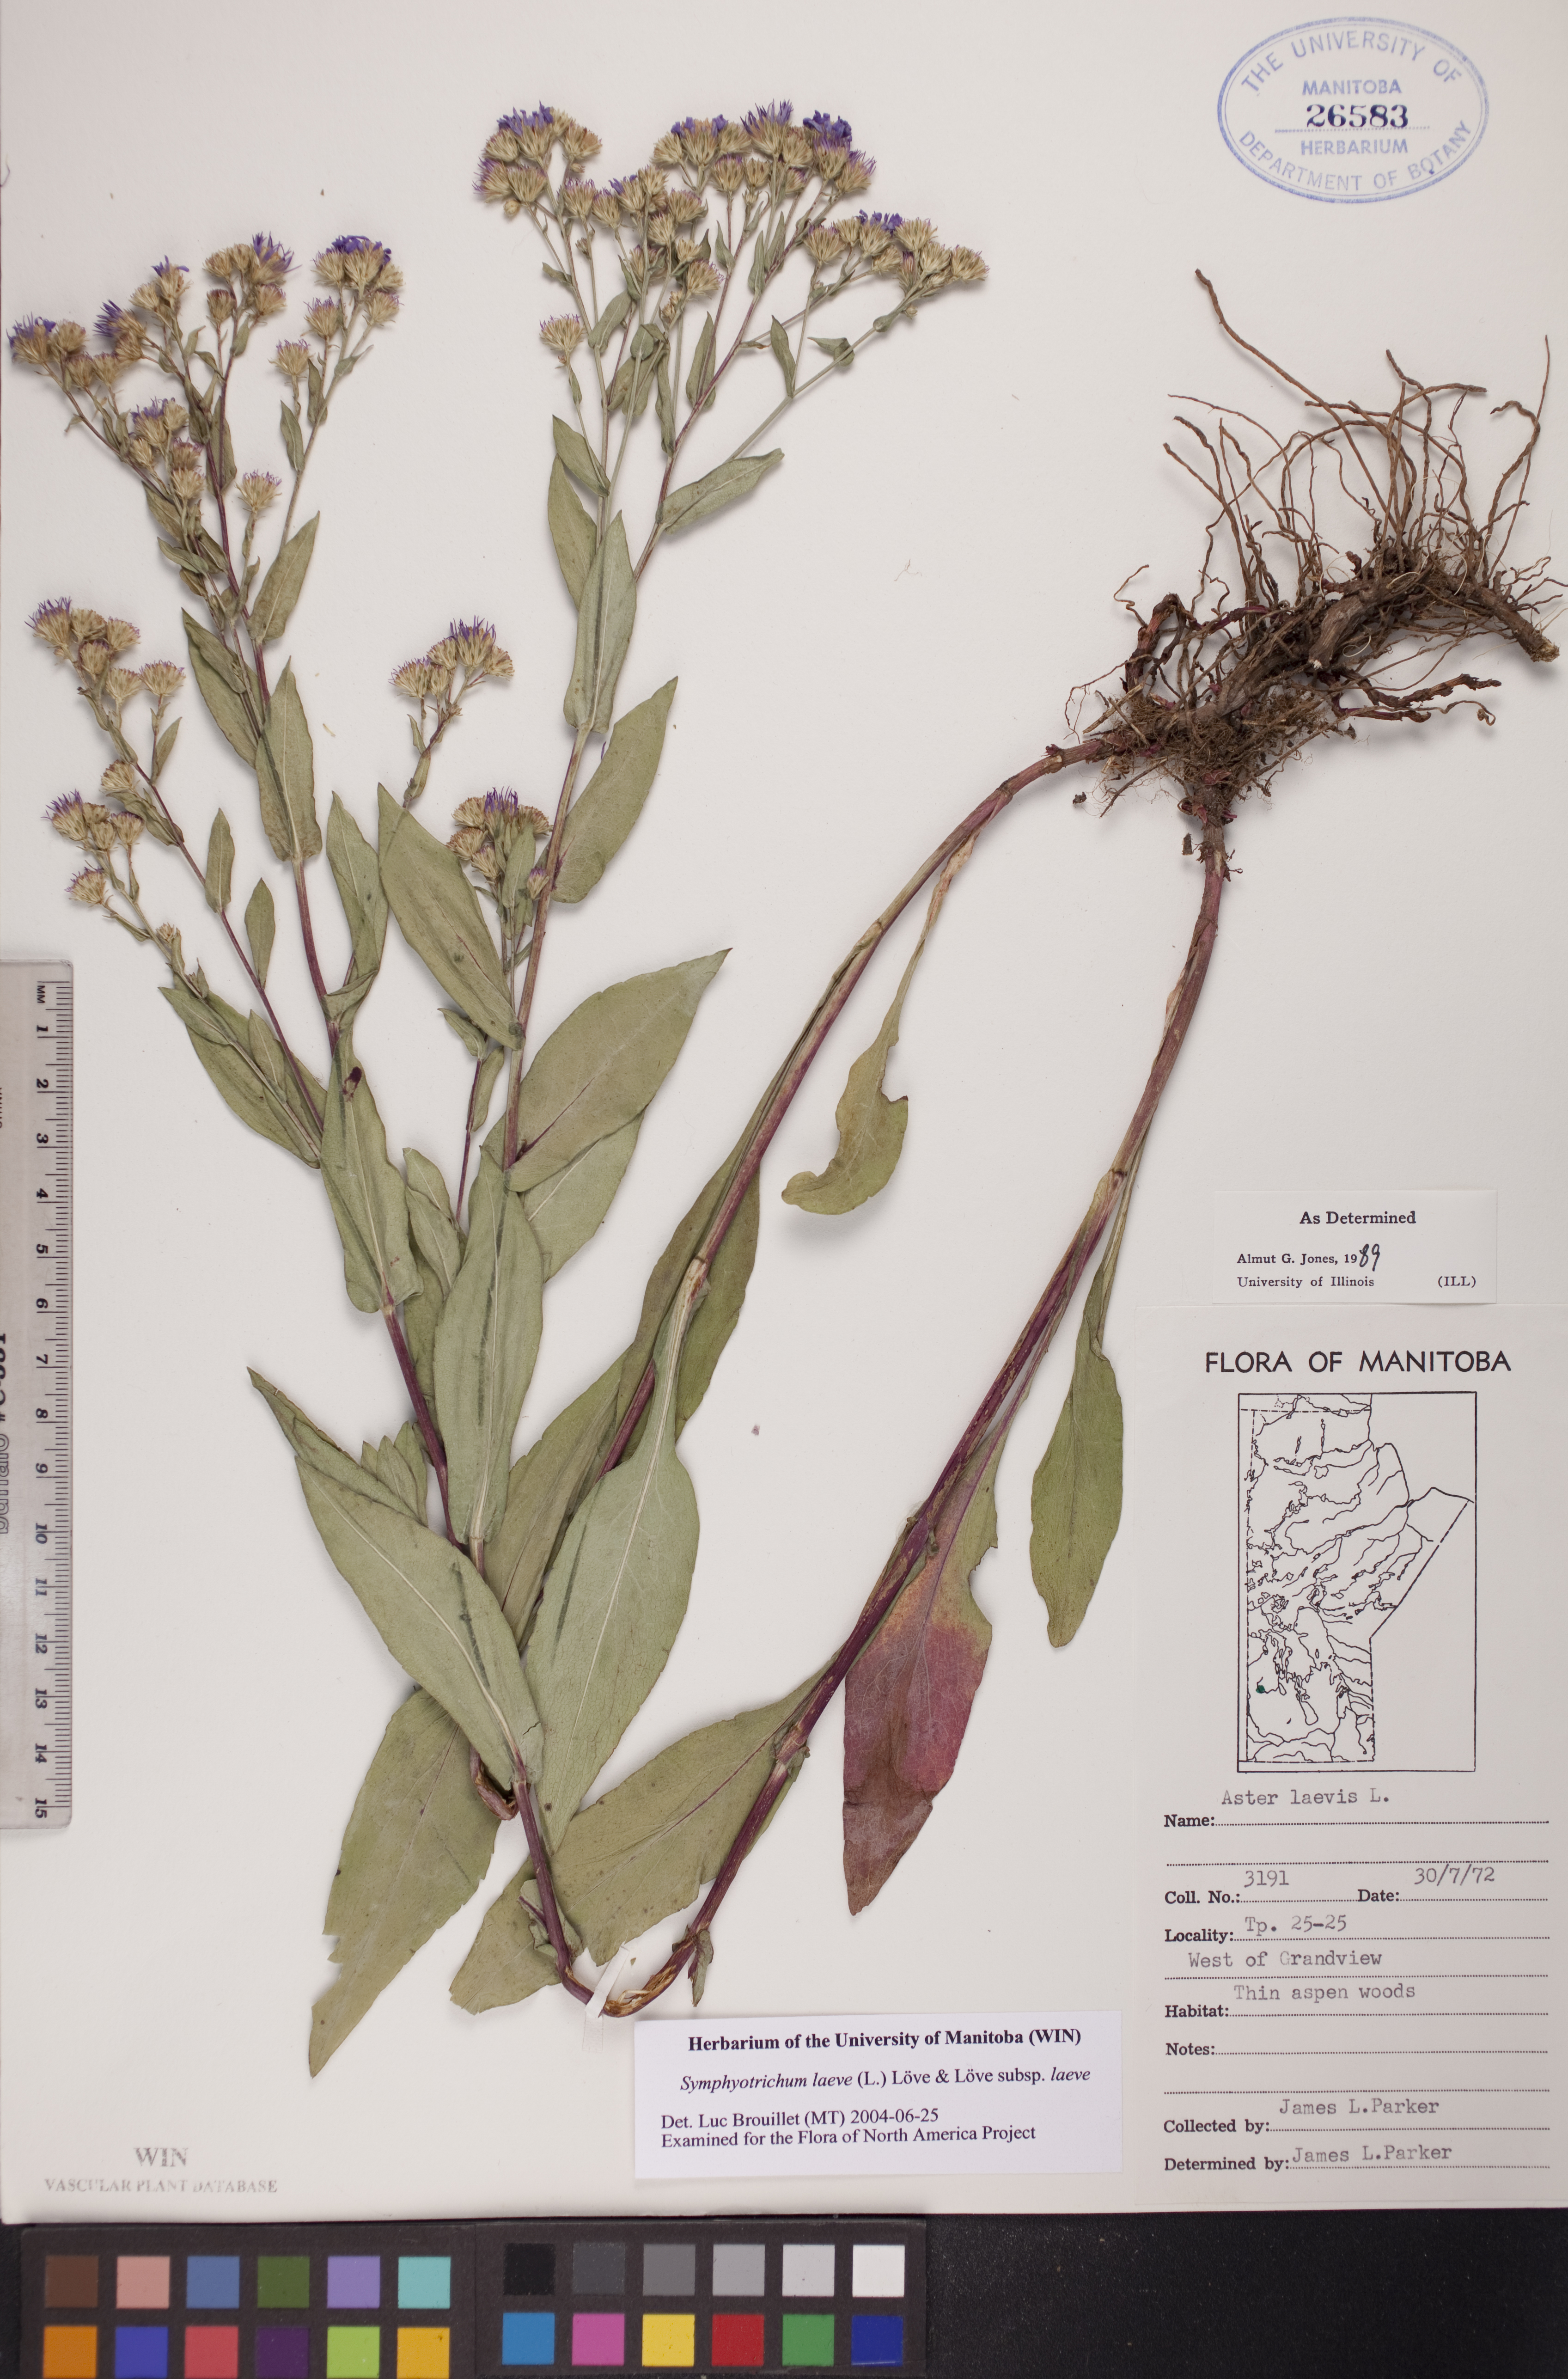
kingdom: Plantae
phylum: Tracheophyta
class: Magnoliopsida
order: Asterales
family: Asteraceae
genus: Symphyotrichum
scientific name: Symphyotrichum laeve
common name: Glaucous aster
